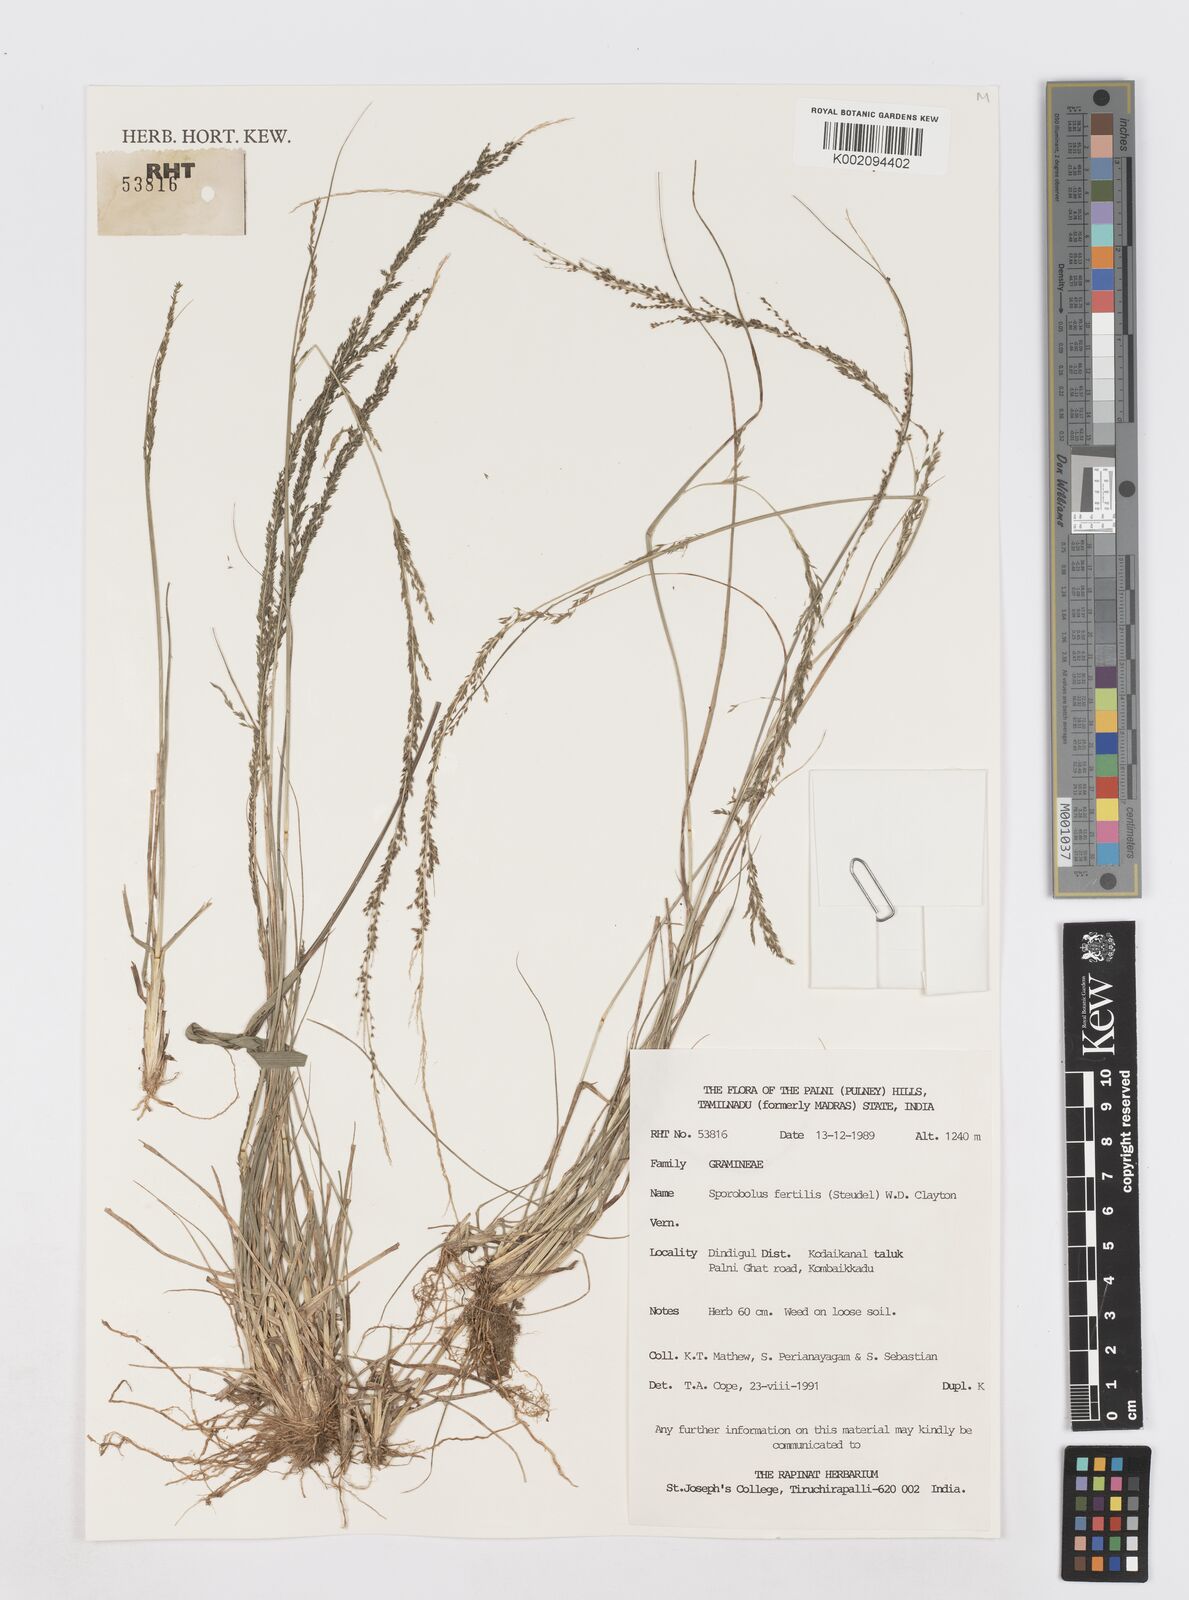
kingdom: Plantae
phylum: Tracheophyta
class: Liliopsida
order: Poales
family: Poaceae
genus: Sporobolus
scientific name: Sporobolus fertilis
